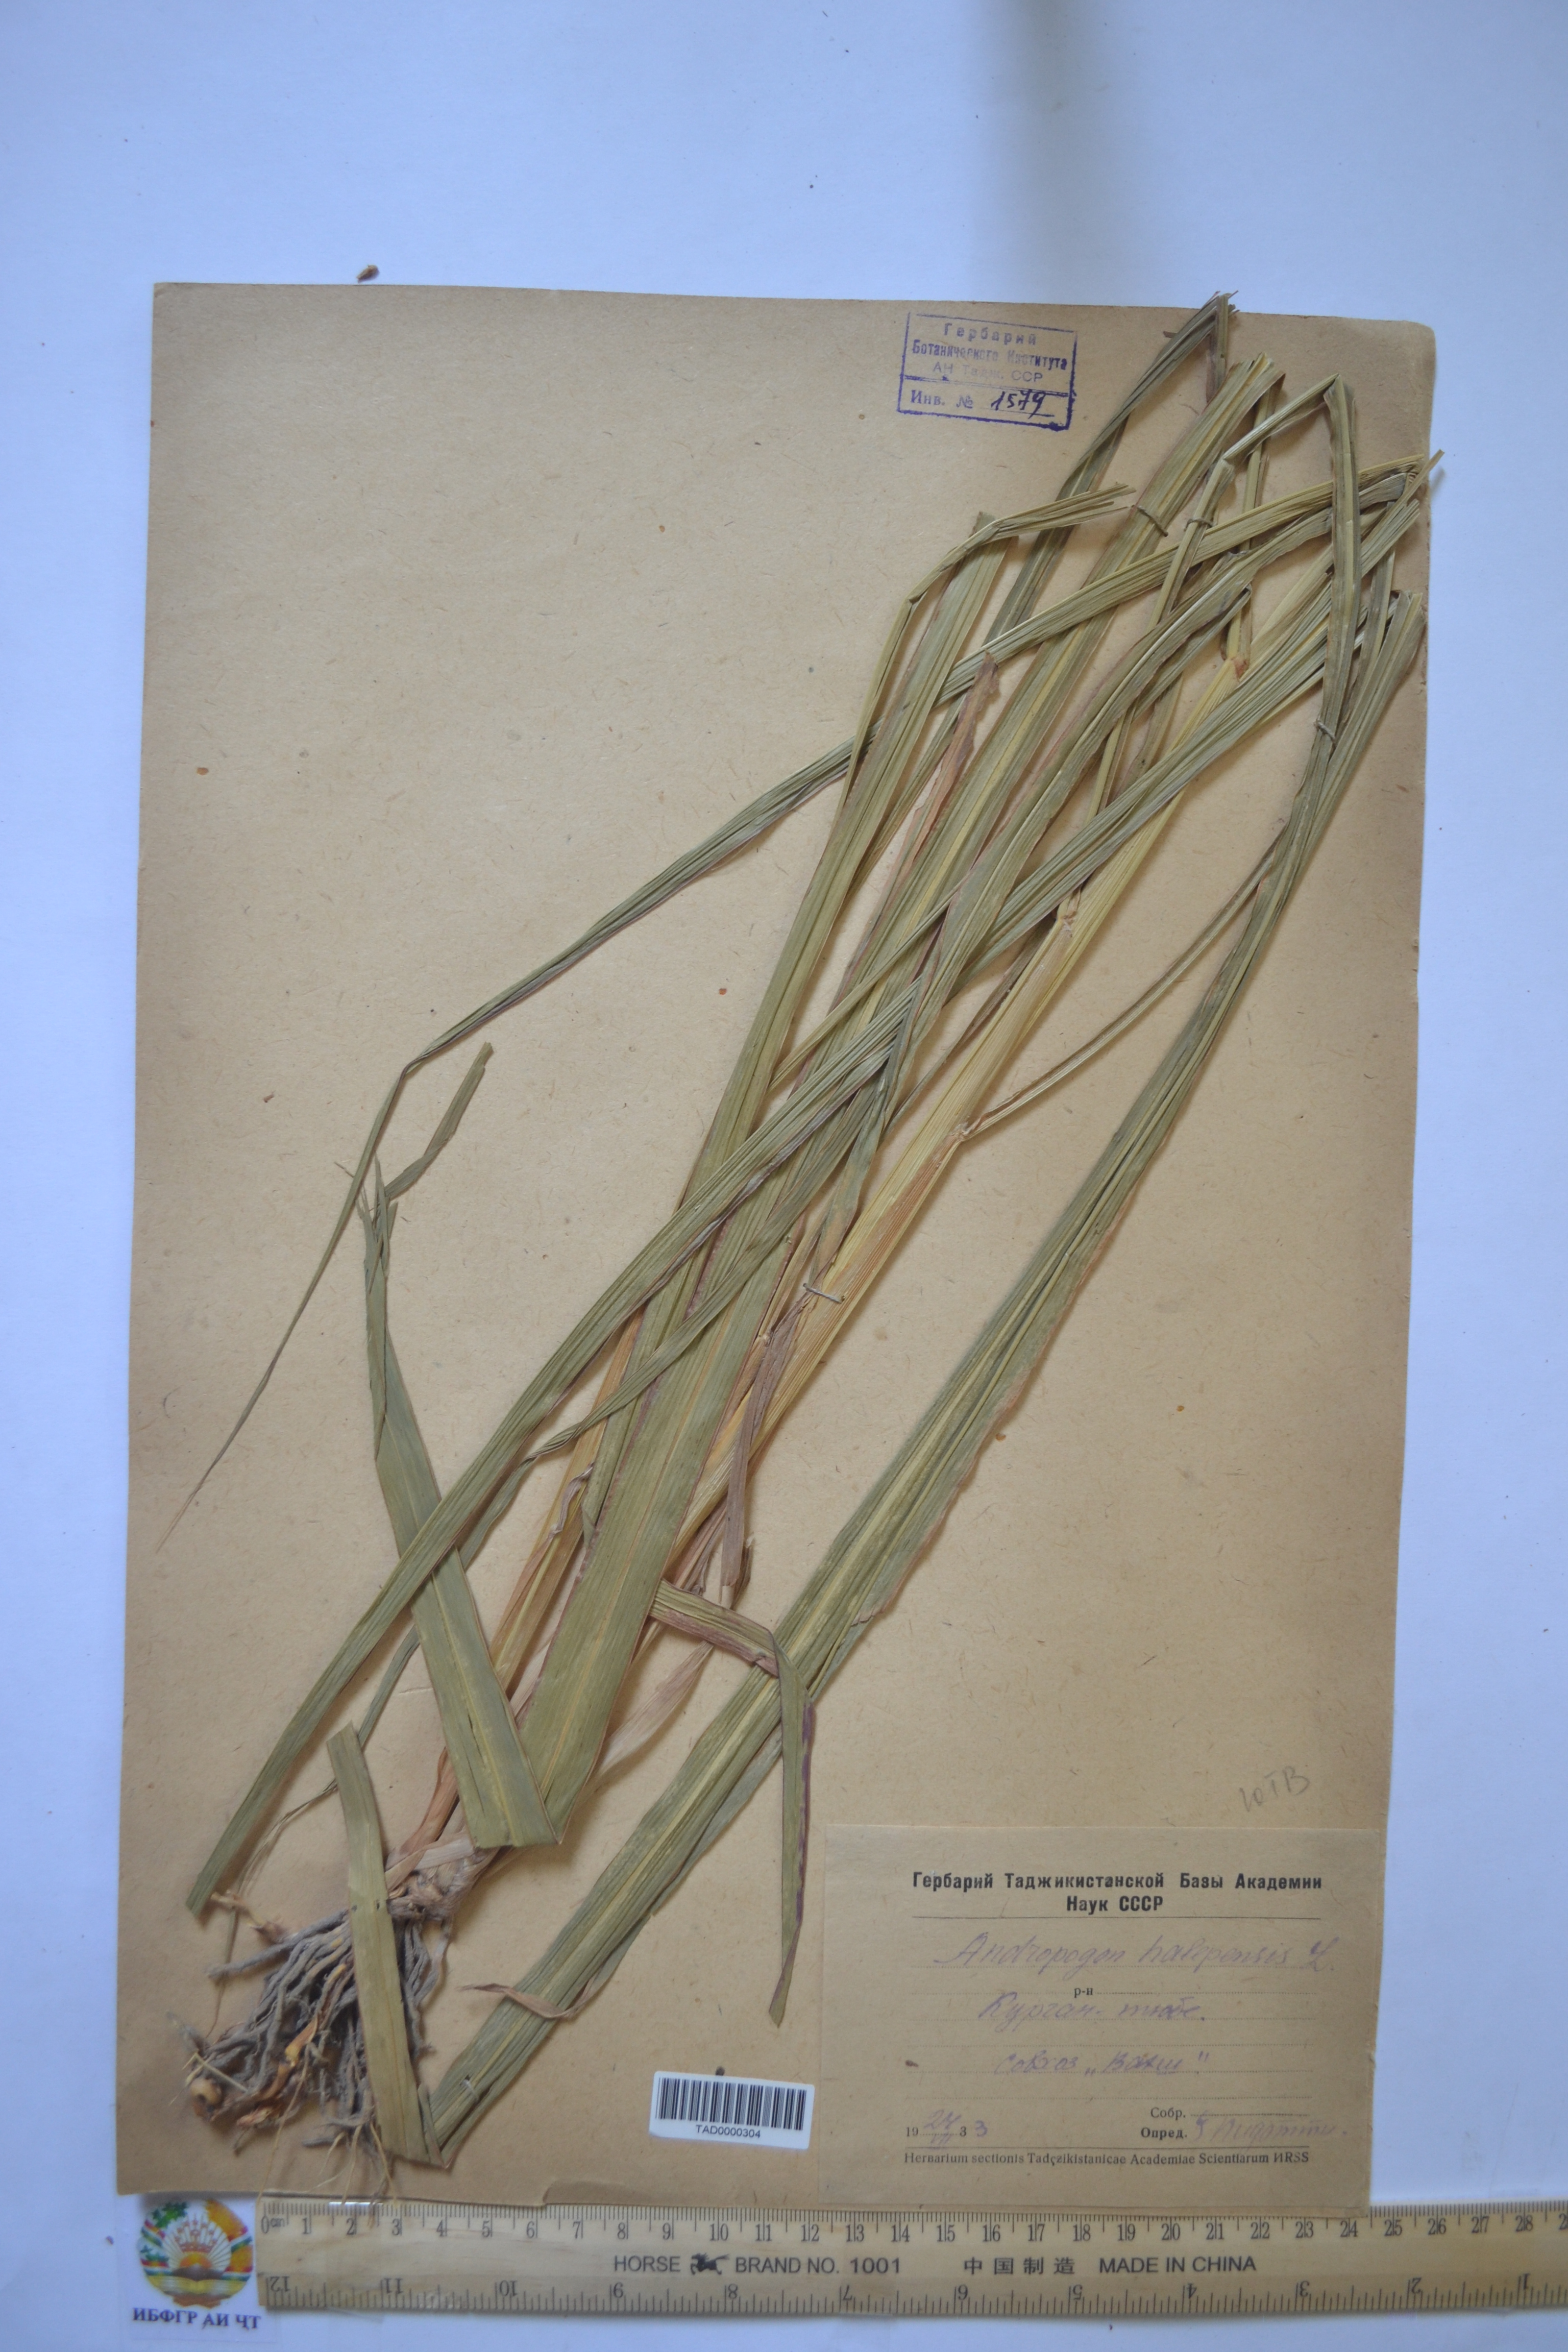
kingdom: Plantae
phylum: Tracheophyta
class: Liliopsida
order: Poales
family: Poaceae
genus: Andropogon
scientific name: Andropogon halepensis
